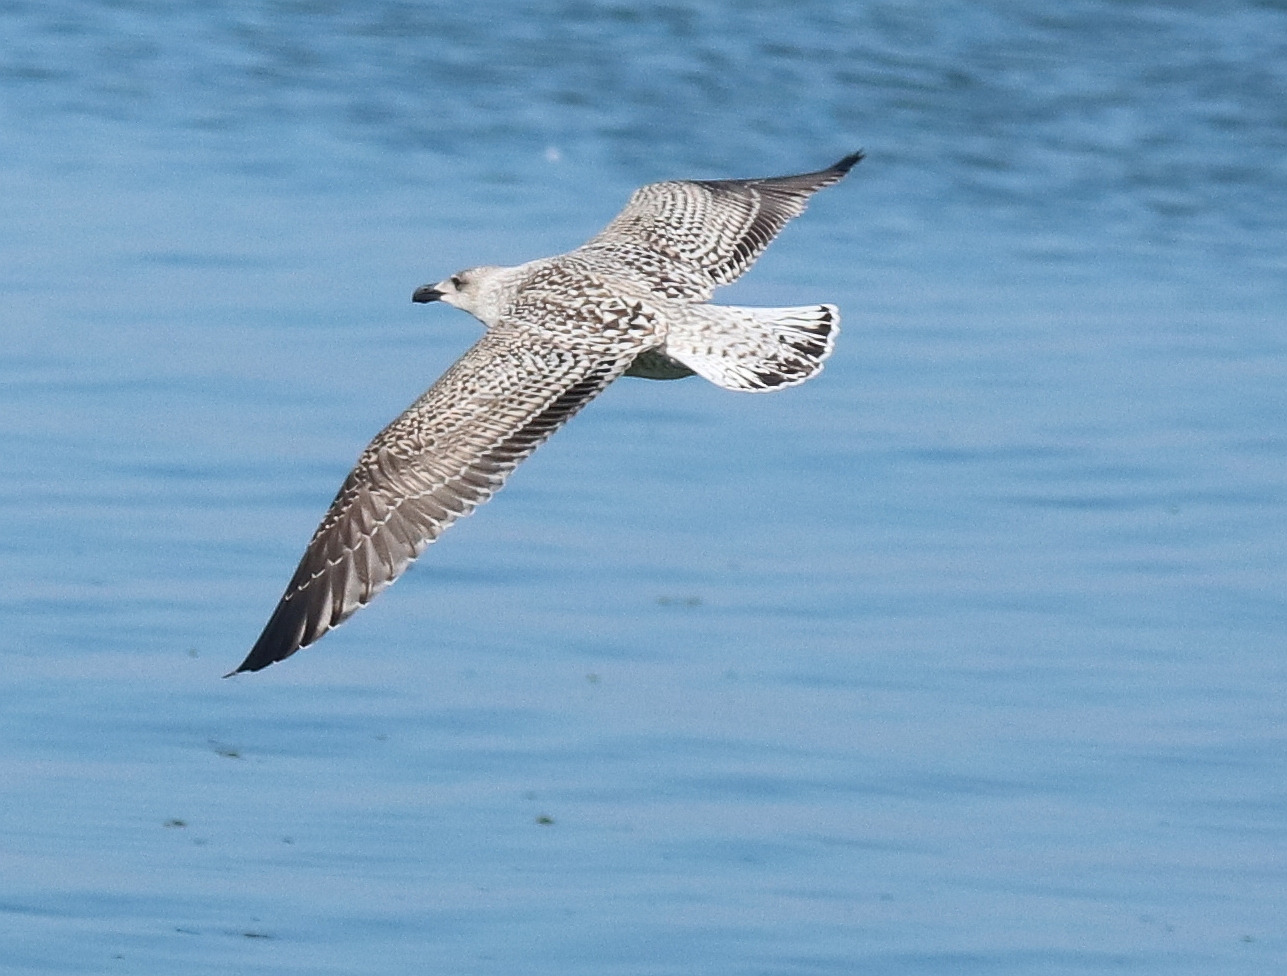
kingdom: Animalia
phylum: Chordata
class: Aves
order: Charadriiformes
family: Laridae
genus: Larus
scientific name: Larus marinus
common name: Svartbag
